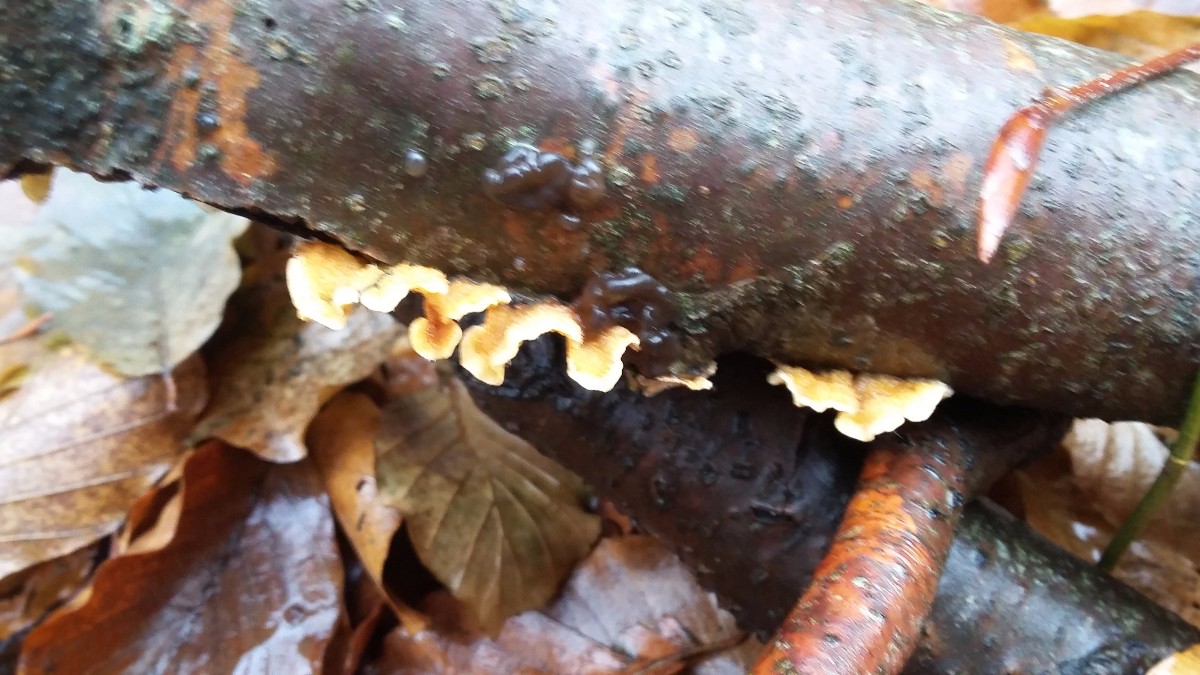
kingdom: Fungi
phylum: Basidiomycota
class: Agaricomycetes
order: Russulales
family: Stereaceae
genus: Stereum
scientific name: Stereum hirsutum
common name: håret lædersvamp
